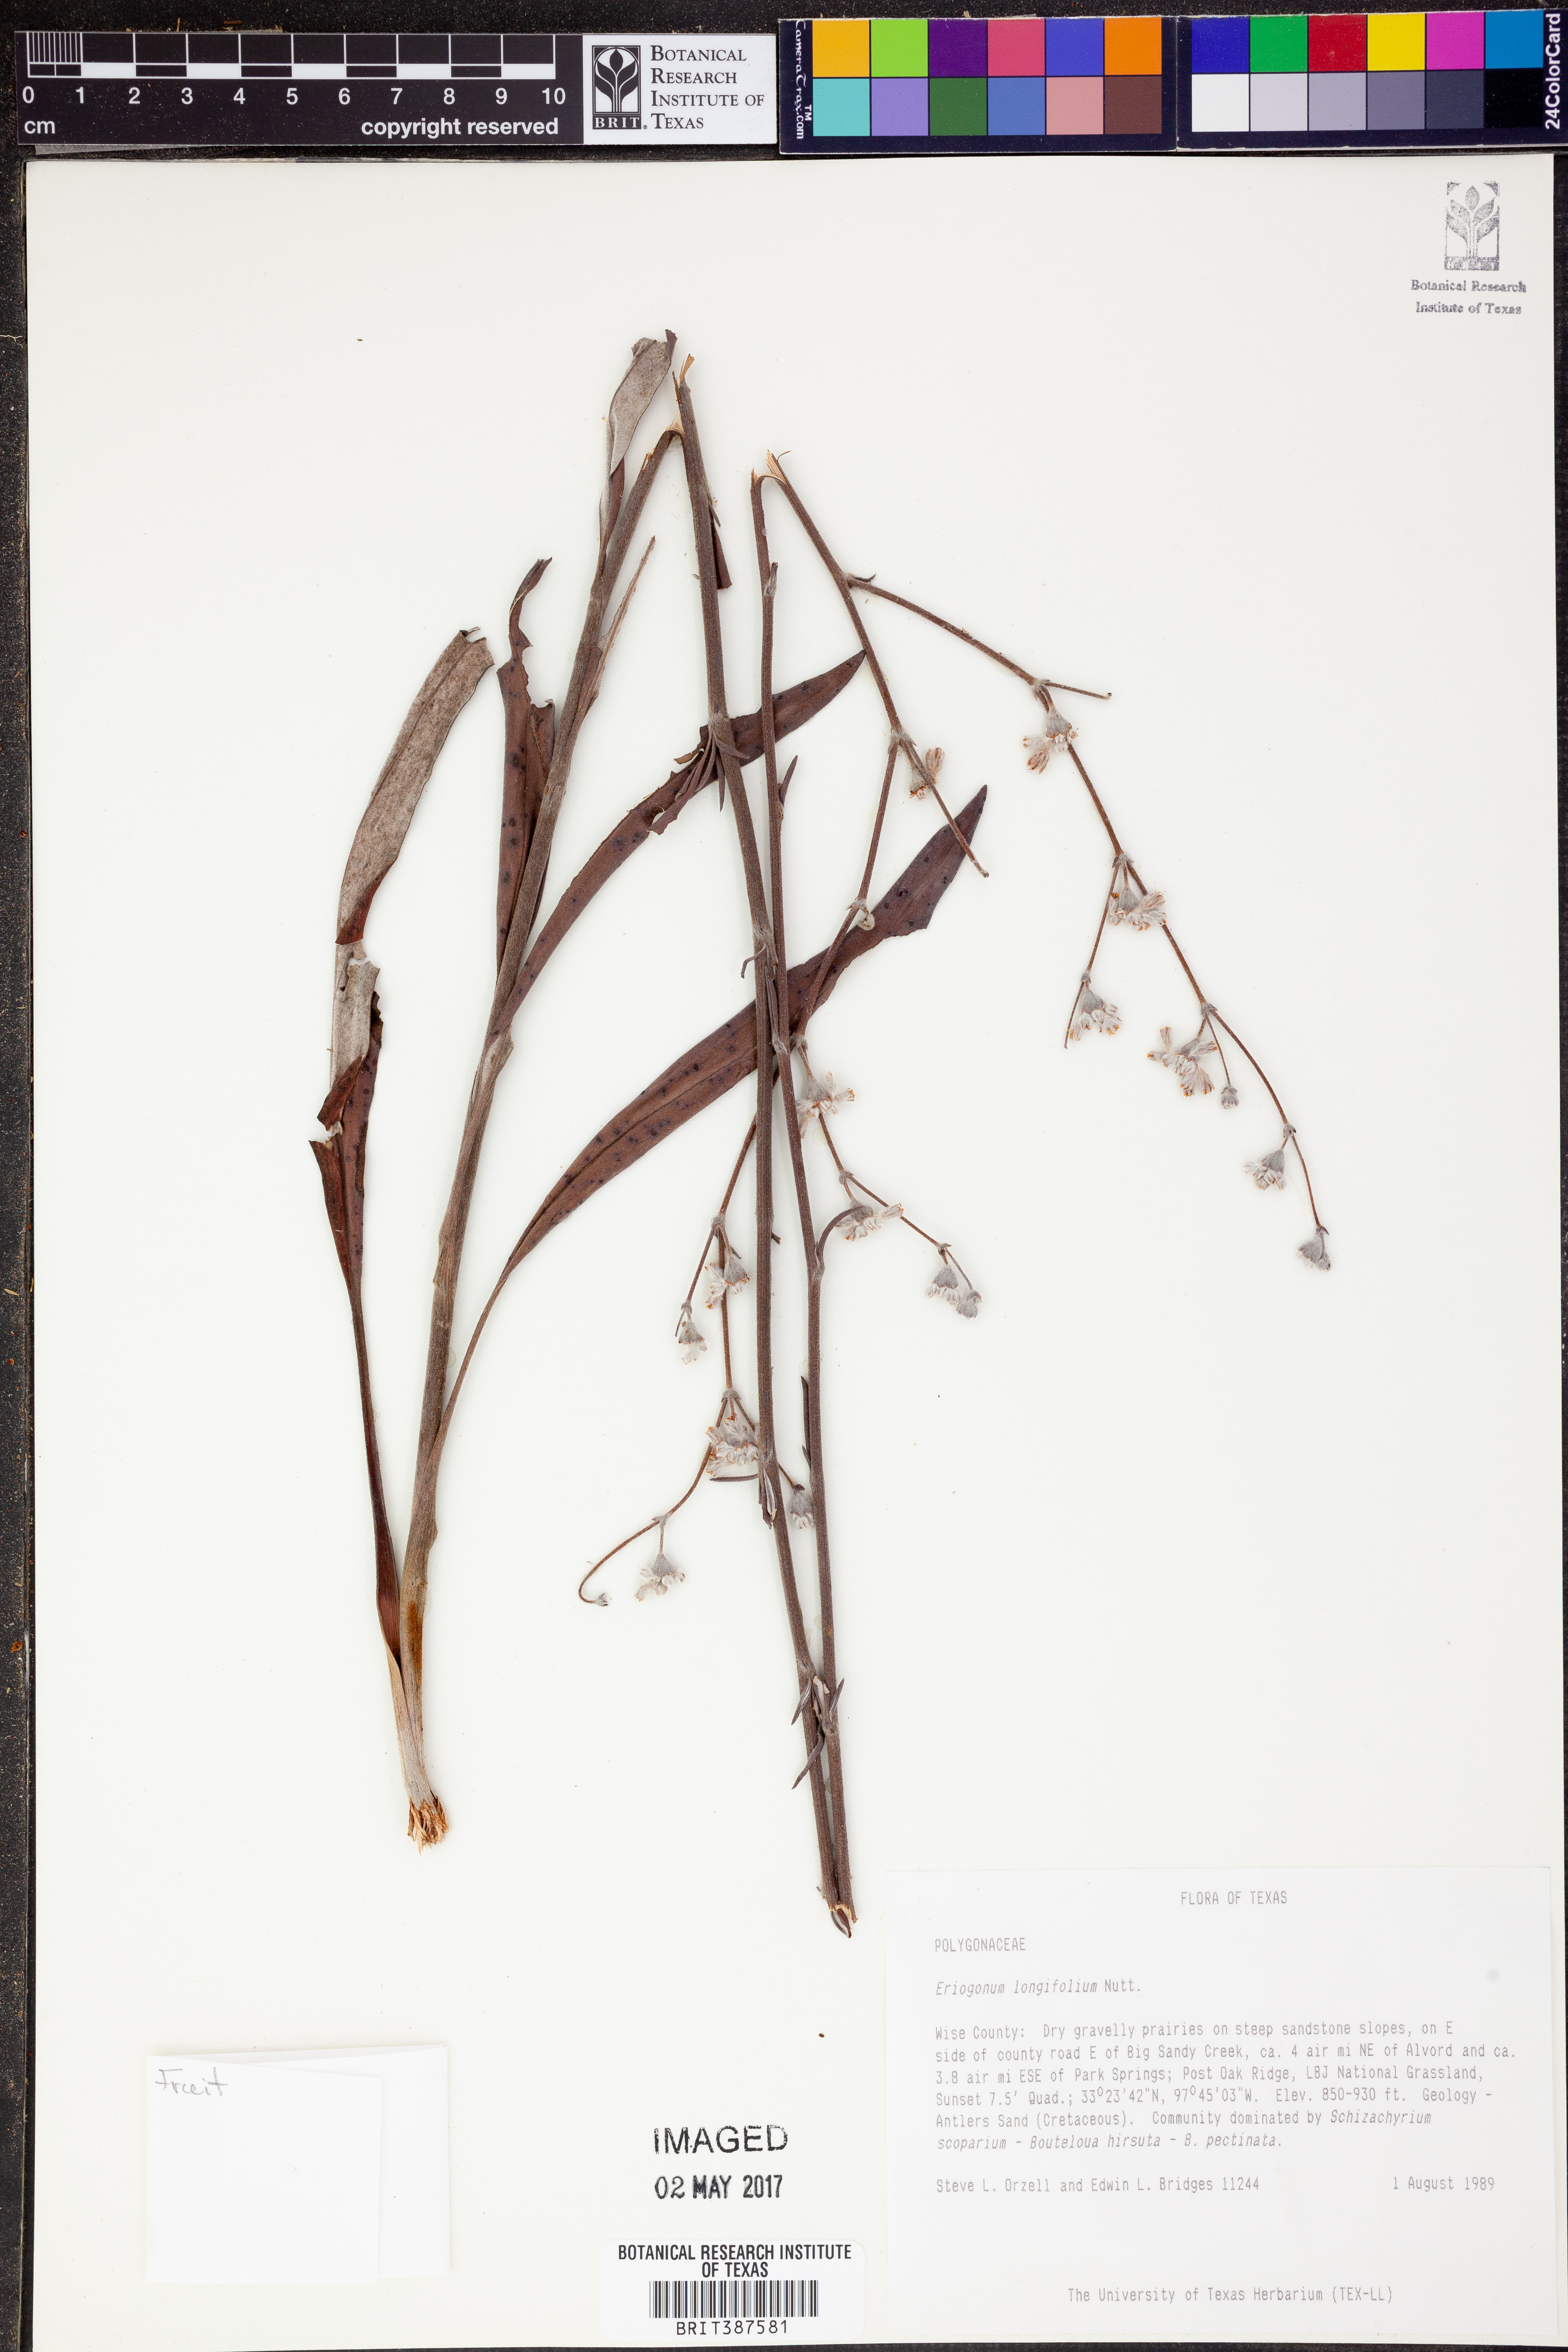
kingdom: Plantae
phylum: Tracheophyta
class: Magnoliopsida
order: Caryophyllales
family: Polygonaceae
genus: Eriogonum
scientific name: Eriogonum longifolium
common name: Longleaf wild buckwheat
